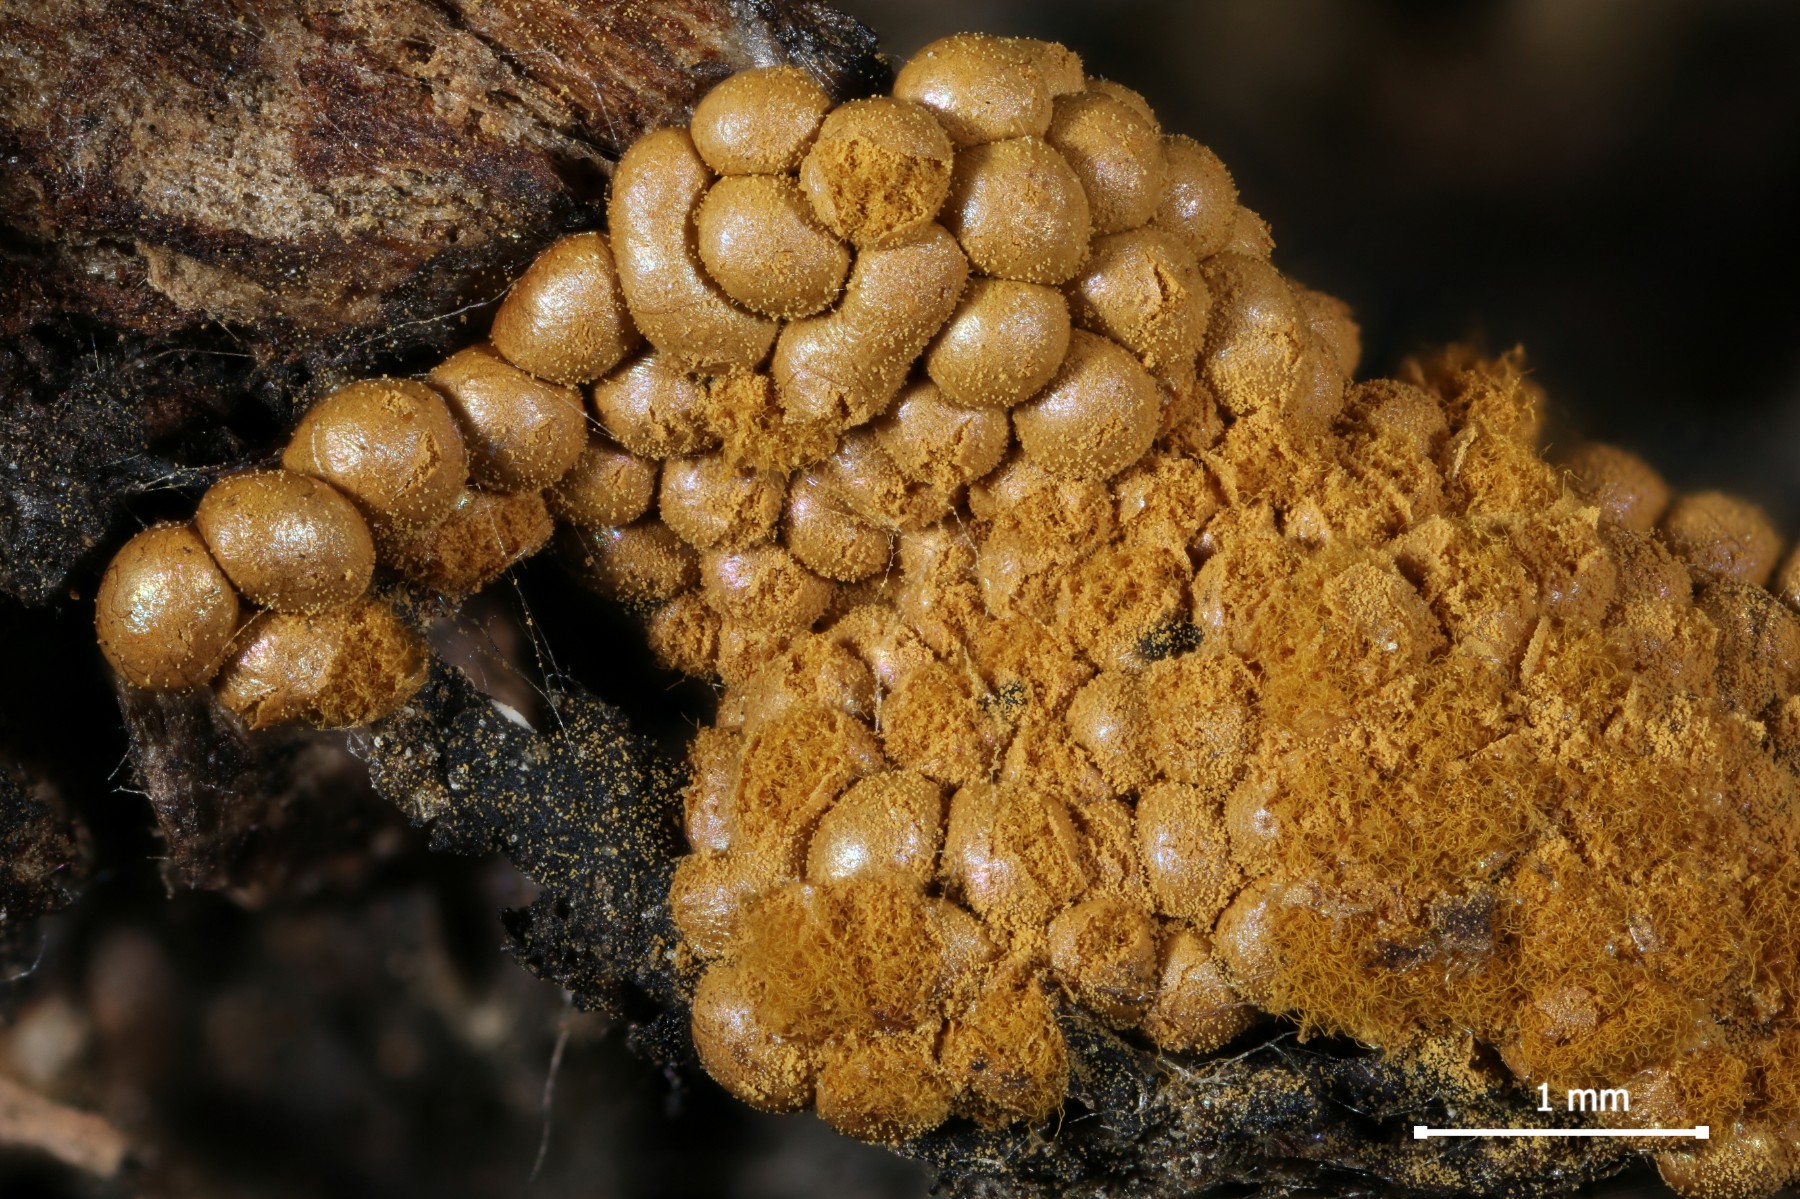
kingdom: Protozoa
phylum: Mycetozoa
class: Myxomycetes
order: Trichiales
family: Trichiaceae
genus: Oligonema
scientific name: Oligonema persimile
